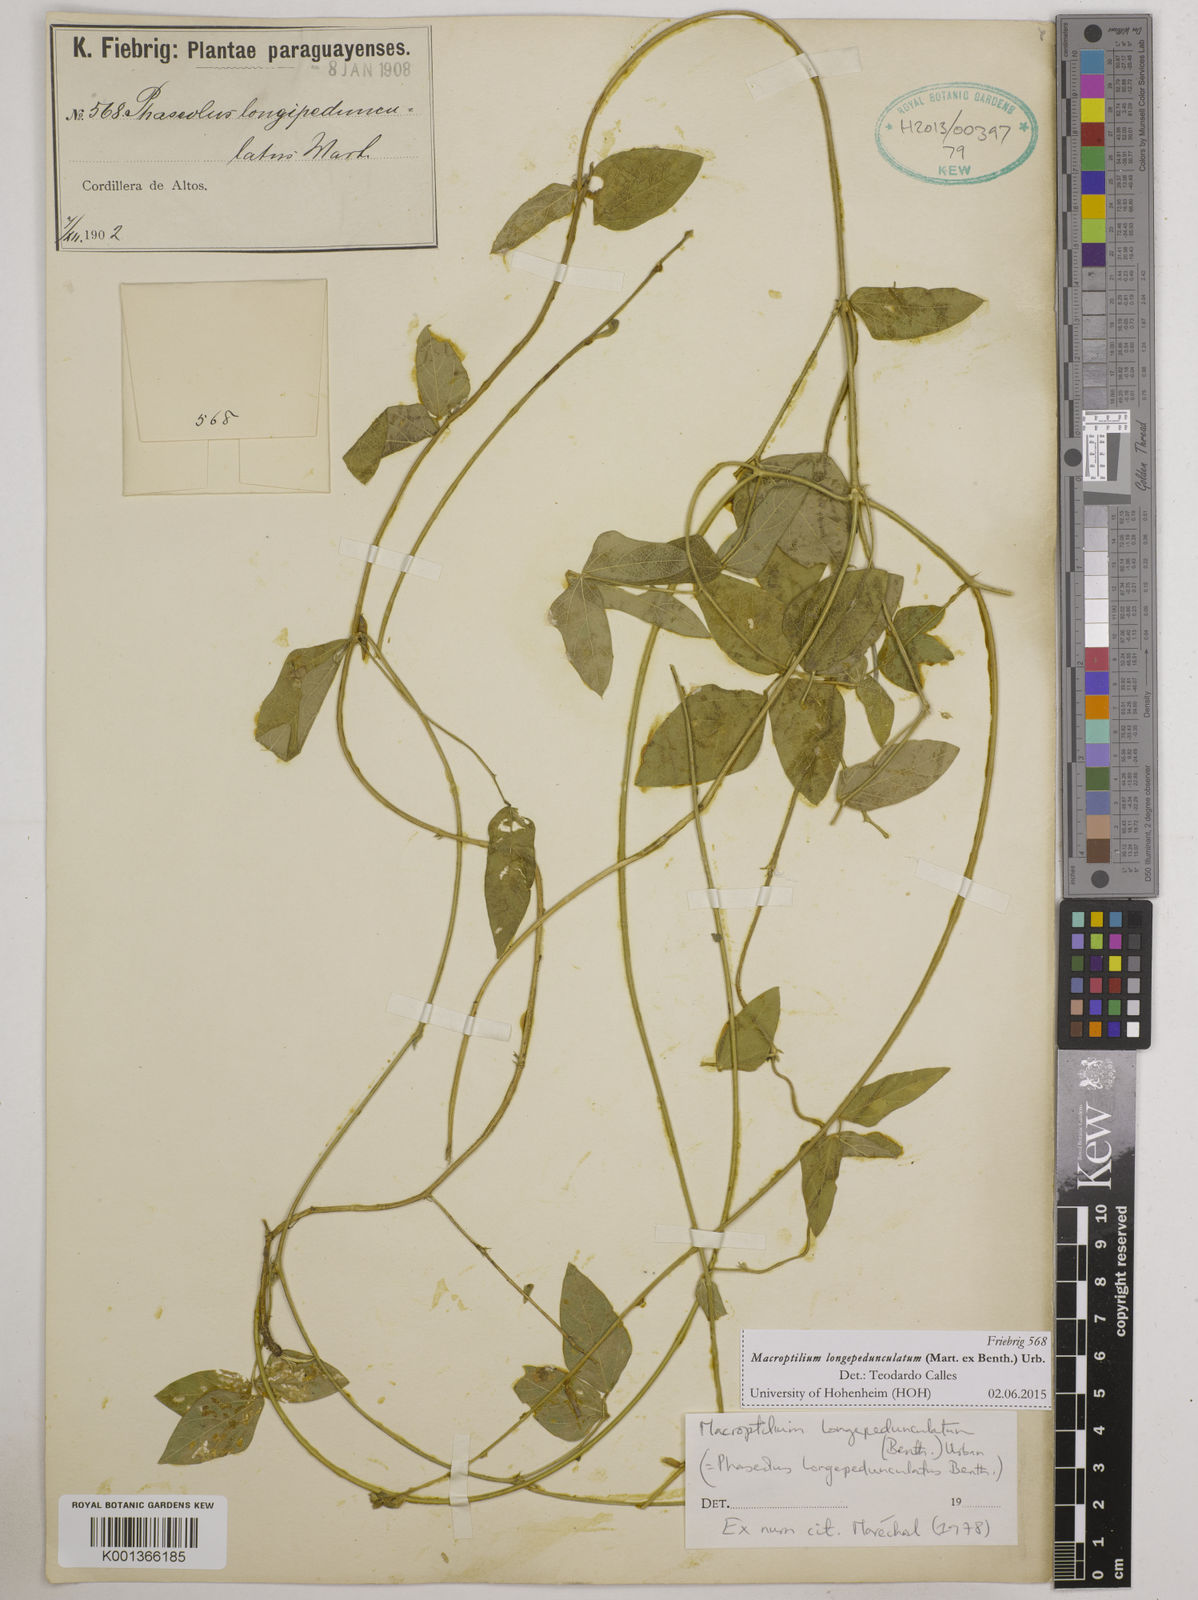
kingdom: Plantae
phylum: Tracheophyta
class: Magnoliopsida
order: Fabales
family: Fabaceae
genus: Macroptilium
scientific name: Macroptilium longepedunculatum
